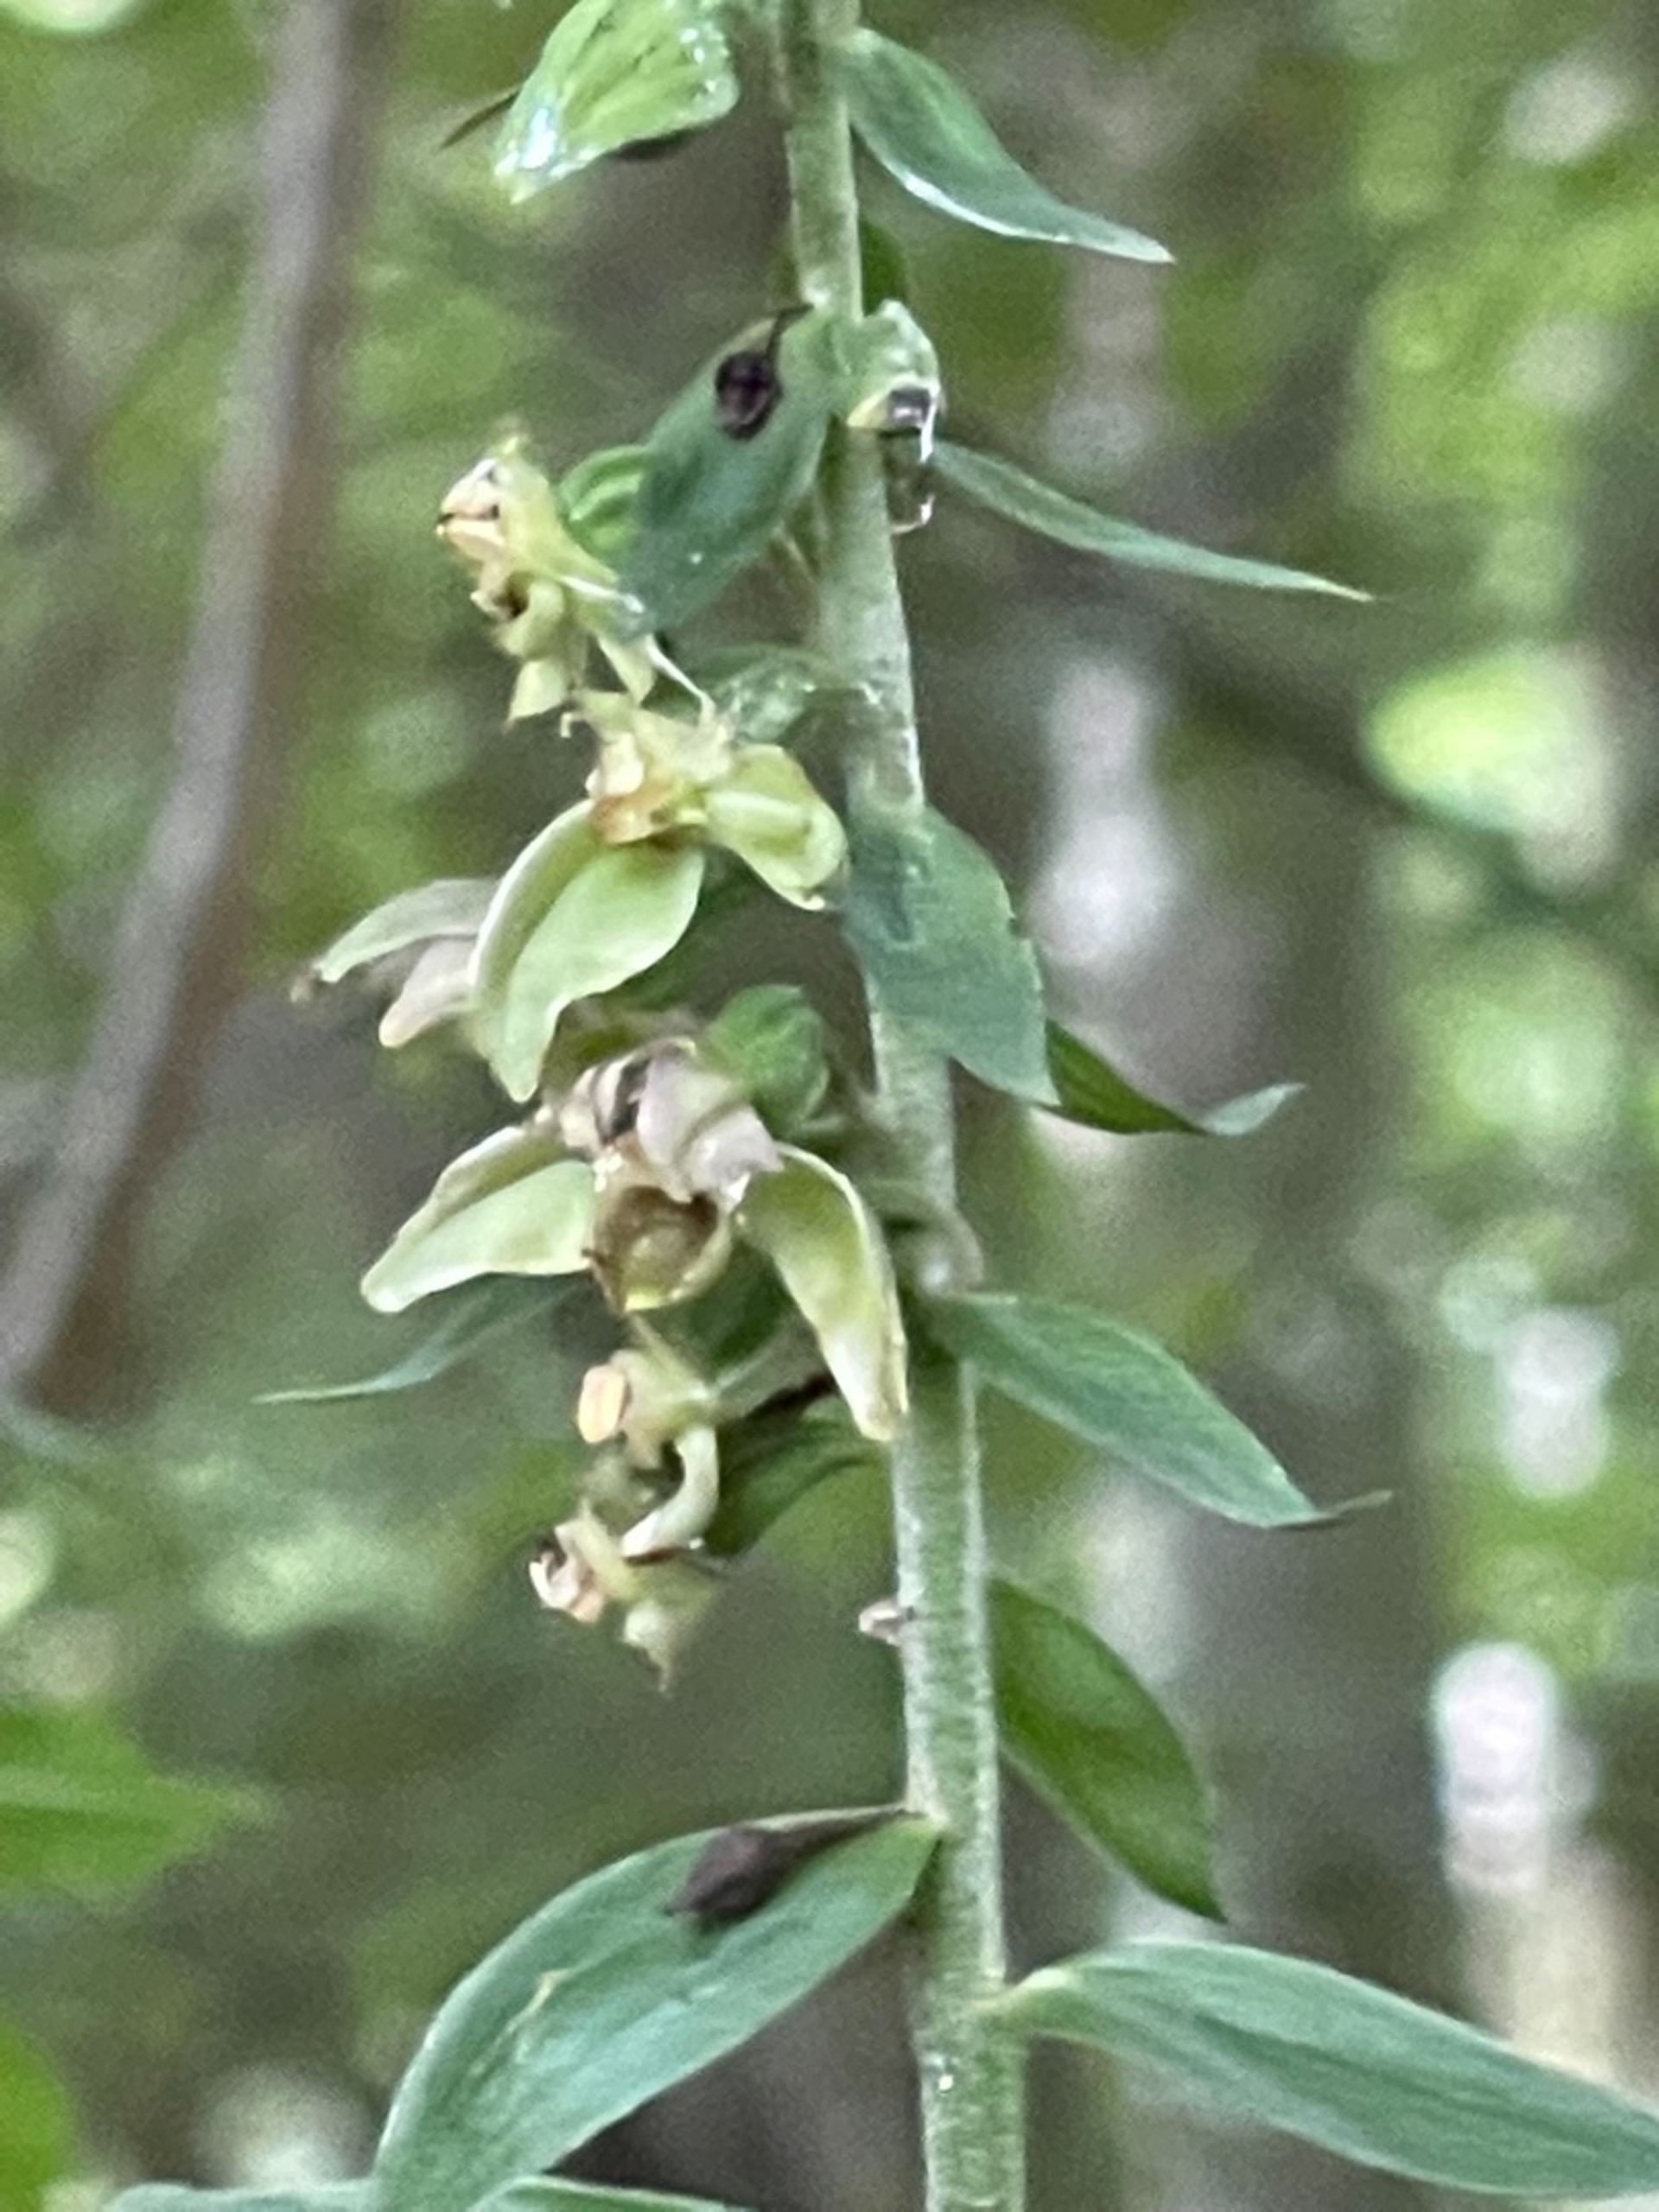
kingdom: Plantae
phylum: Tracheophyta
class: Liliopsida
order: Asparagales
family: Orchidaceae
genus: Epipactis
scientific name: Epipactis helleborine
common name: Skov-hullæbe
